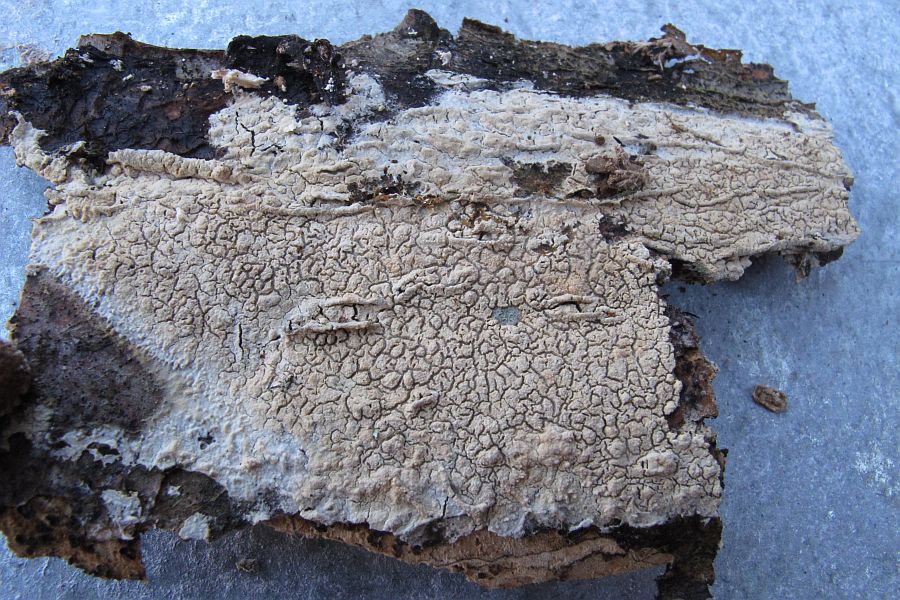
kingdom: Fungi
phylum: Basidiomycota
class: Agaricomycetes
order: Corticiales
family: Corticiaceae
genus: Lyomyces
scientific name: Lyomyces crustosus
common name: vortet hyldehinde
